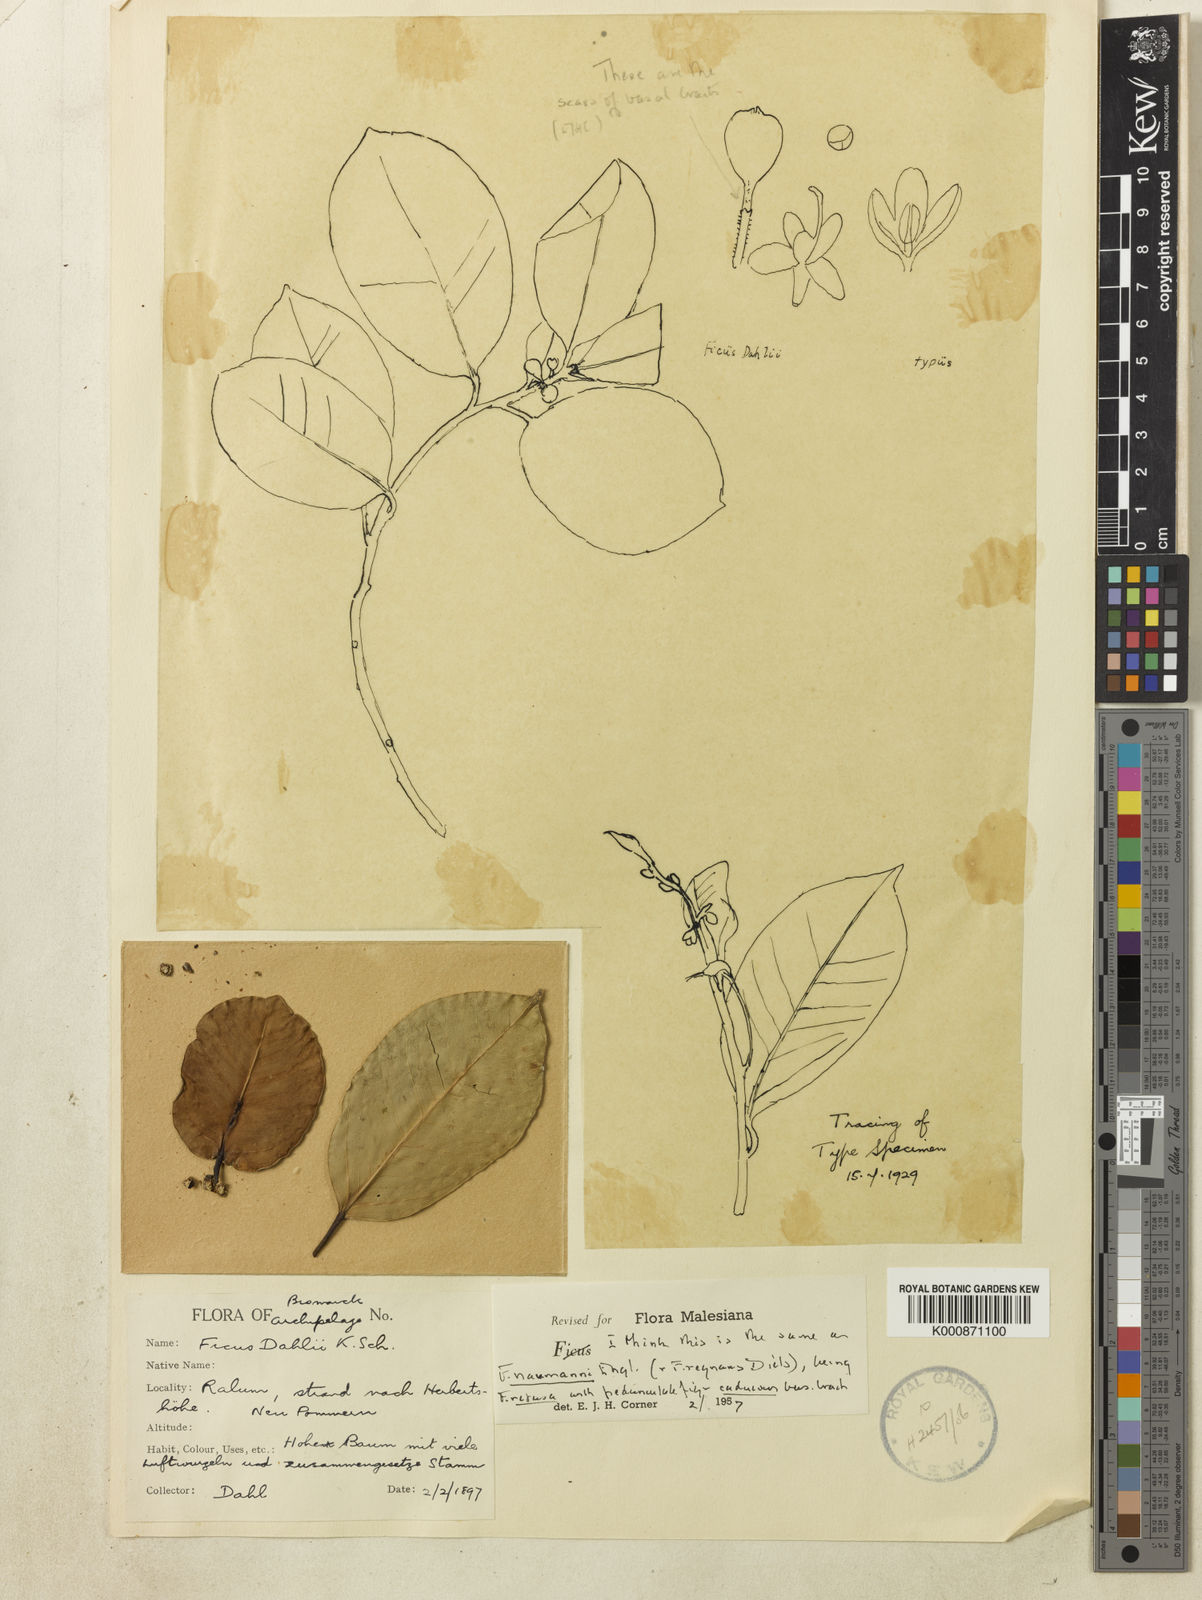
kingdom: Plantae
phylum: Tracheophyta
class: Magnoliopsida
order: Rosales
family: Moraceae
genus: Ficus
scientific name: Ficus microcarpa
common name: Chinese banyan
